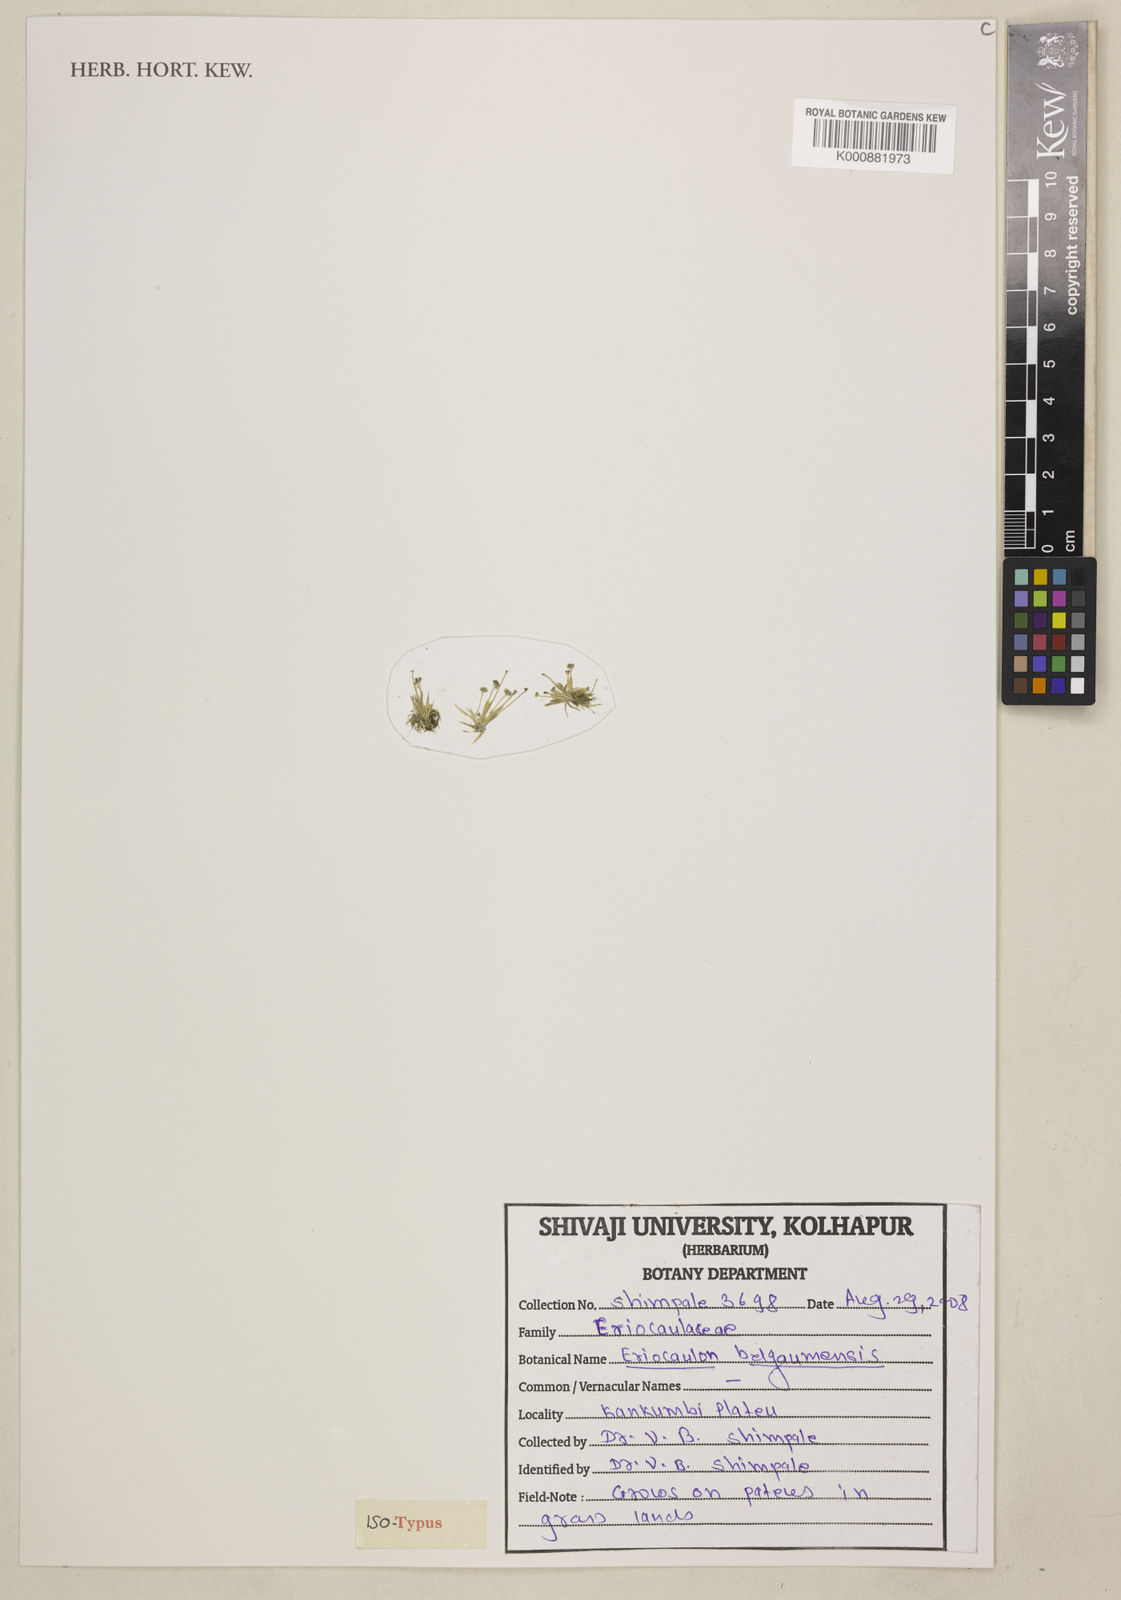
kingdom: Plantae
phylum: Tracheophyta
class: Liliopsida
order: Poales
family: Eriocaulaceae
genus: Eriocaulon
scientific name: Eriocaulon belgaumensis
